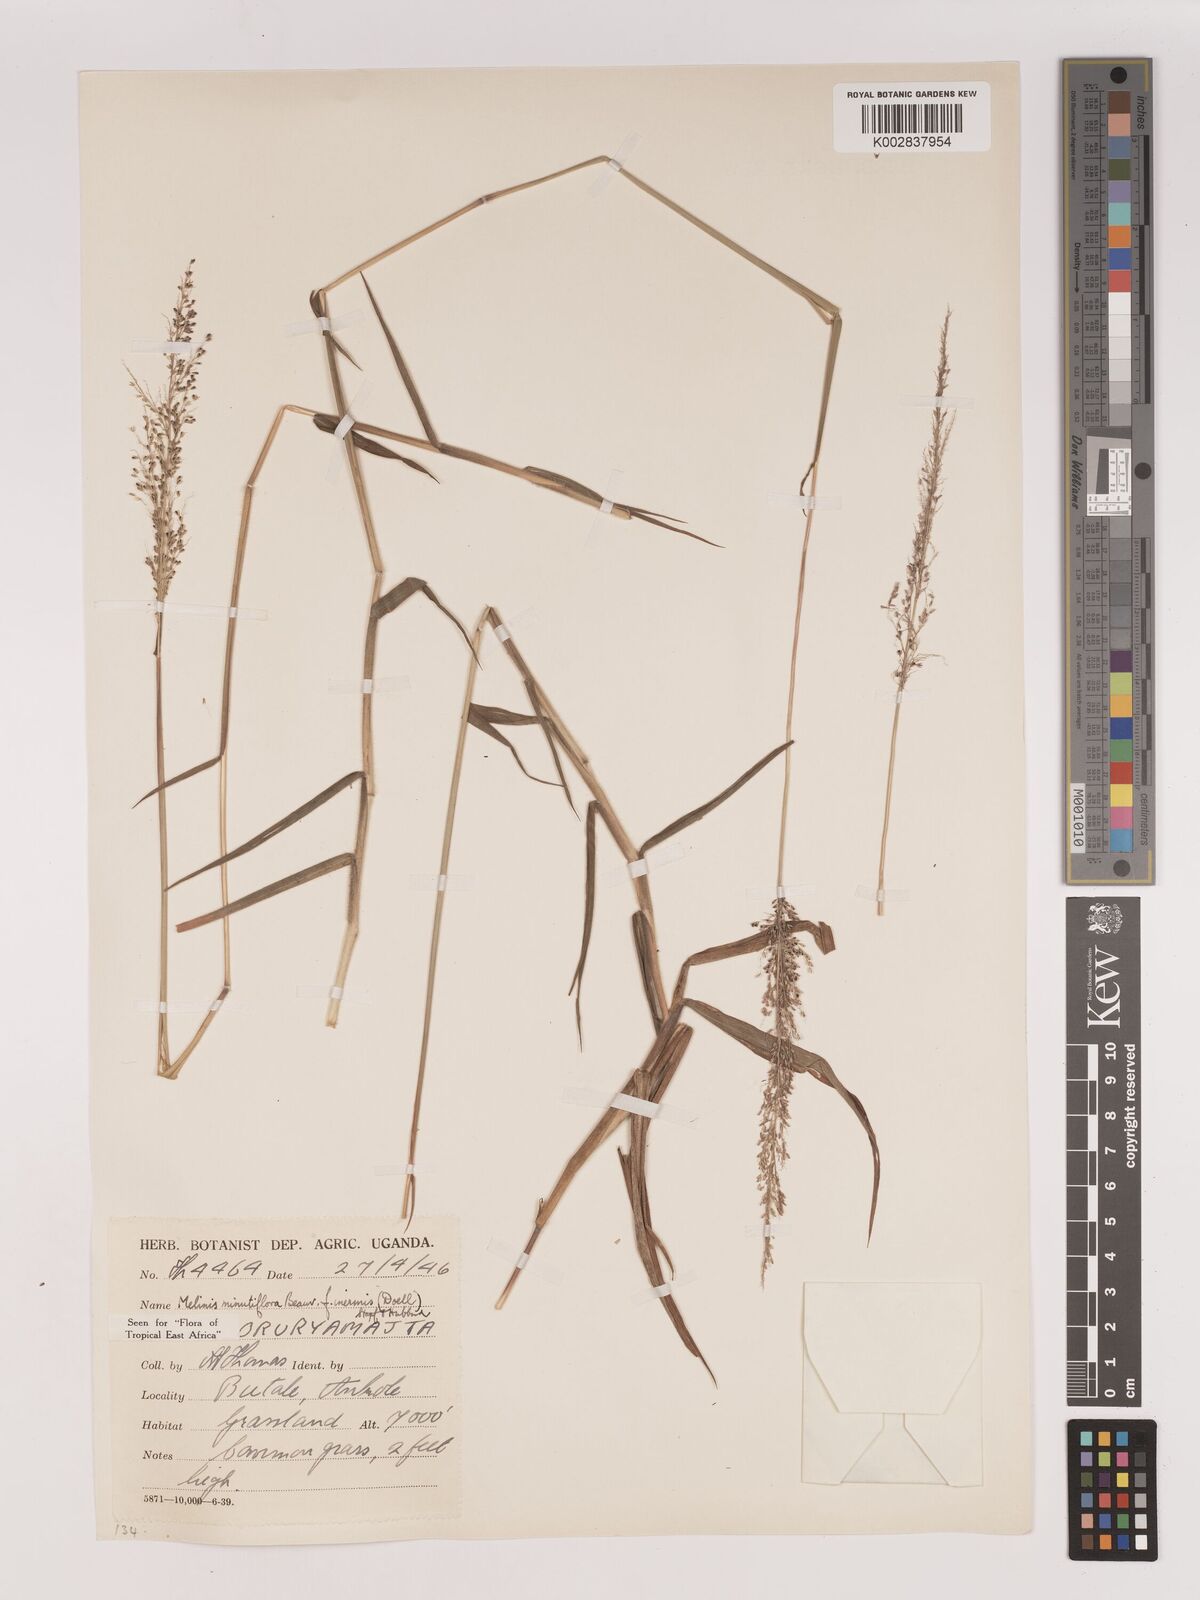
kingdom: Plantae
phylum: Tracheophyta
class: Liliopsida
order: Poales
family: Poaceae
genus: Melinis
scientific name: Melinis minutiflora
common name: Molassesgrass
